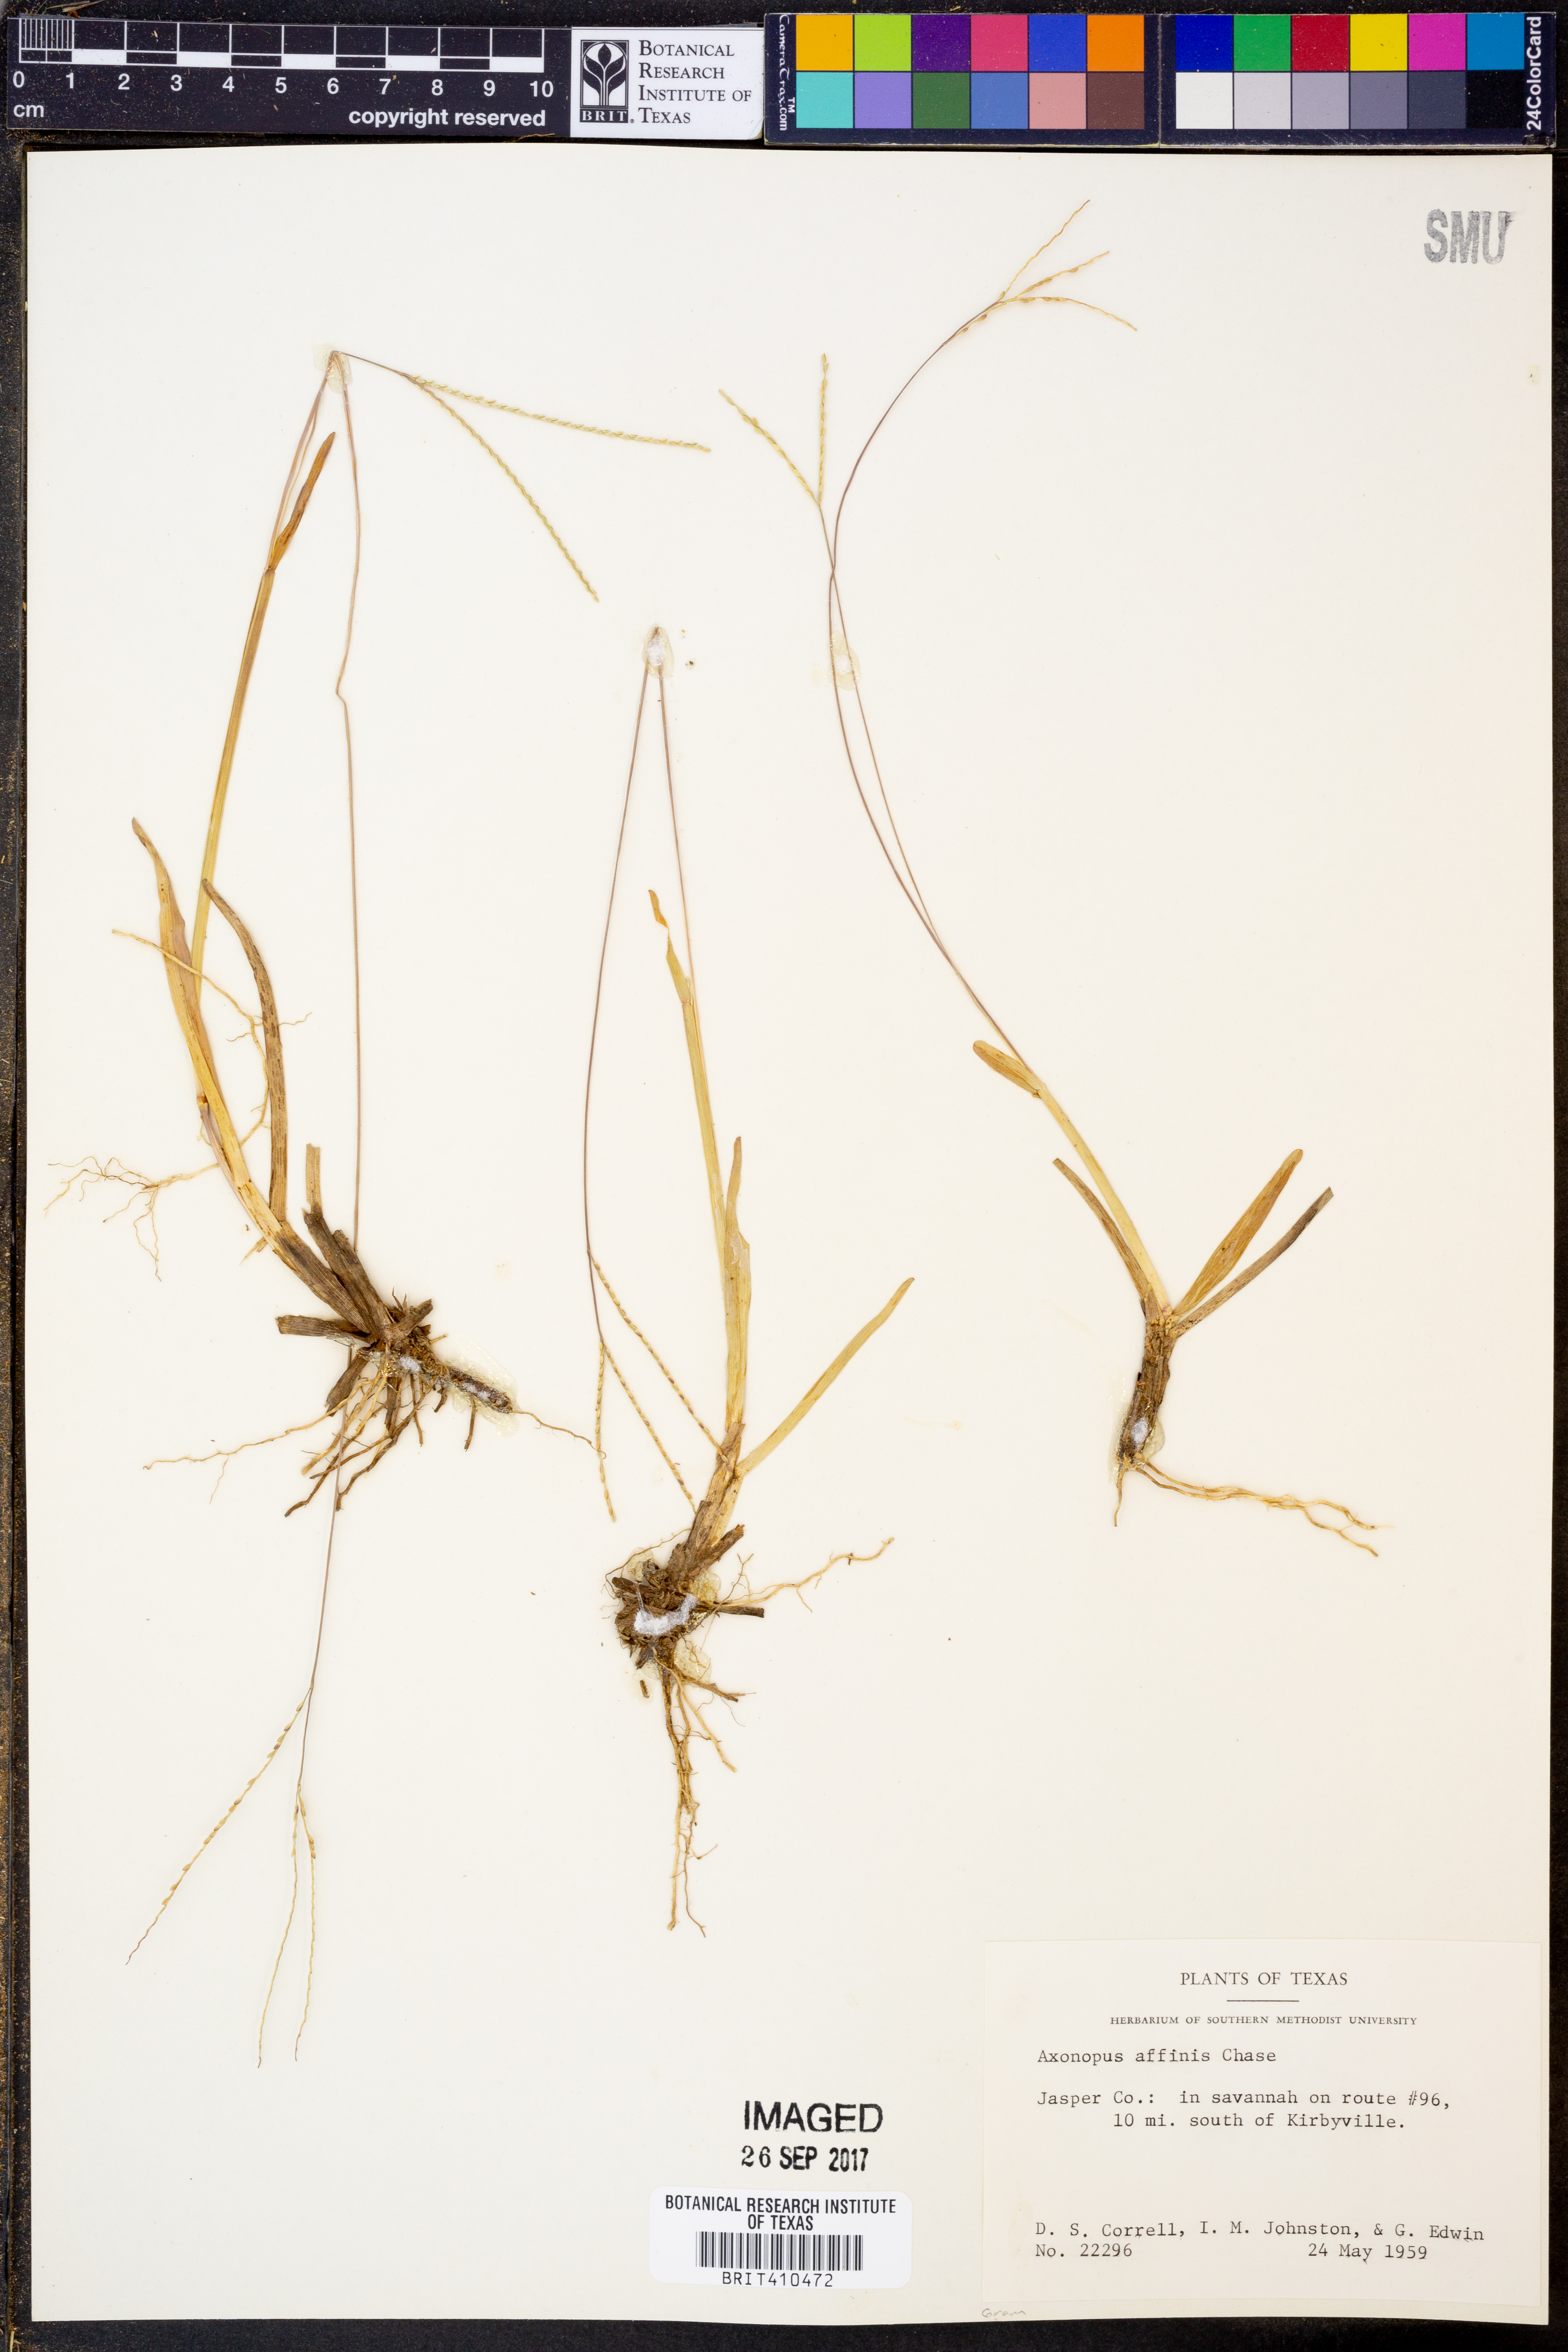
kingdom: Plantae
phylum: Tracheophyta
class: Liliopsida
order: Poales
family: Poaceae
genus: Axonopus
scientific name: Axonopus fissifolius
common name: Common carpetgrass
